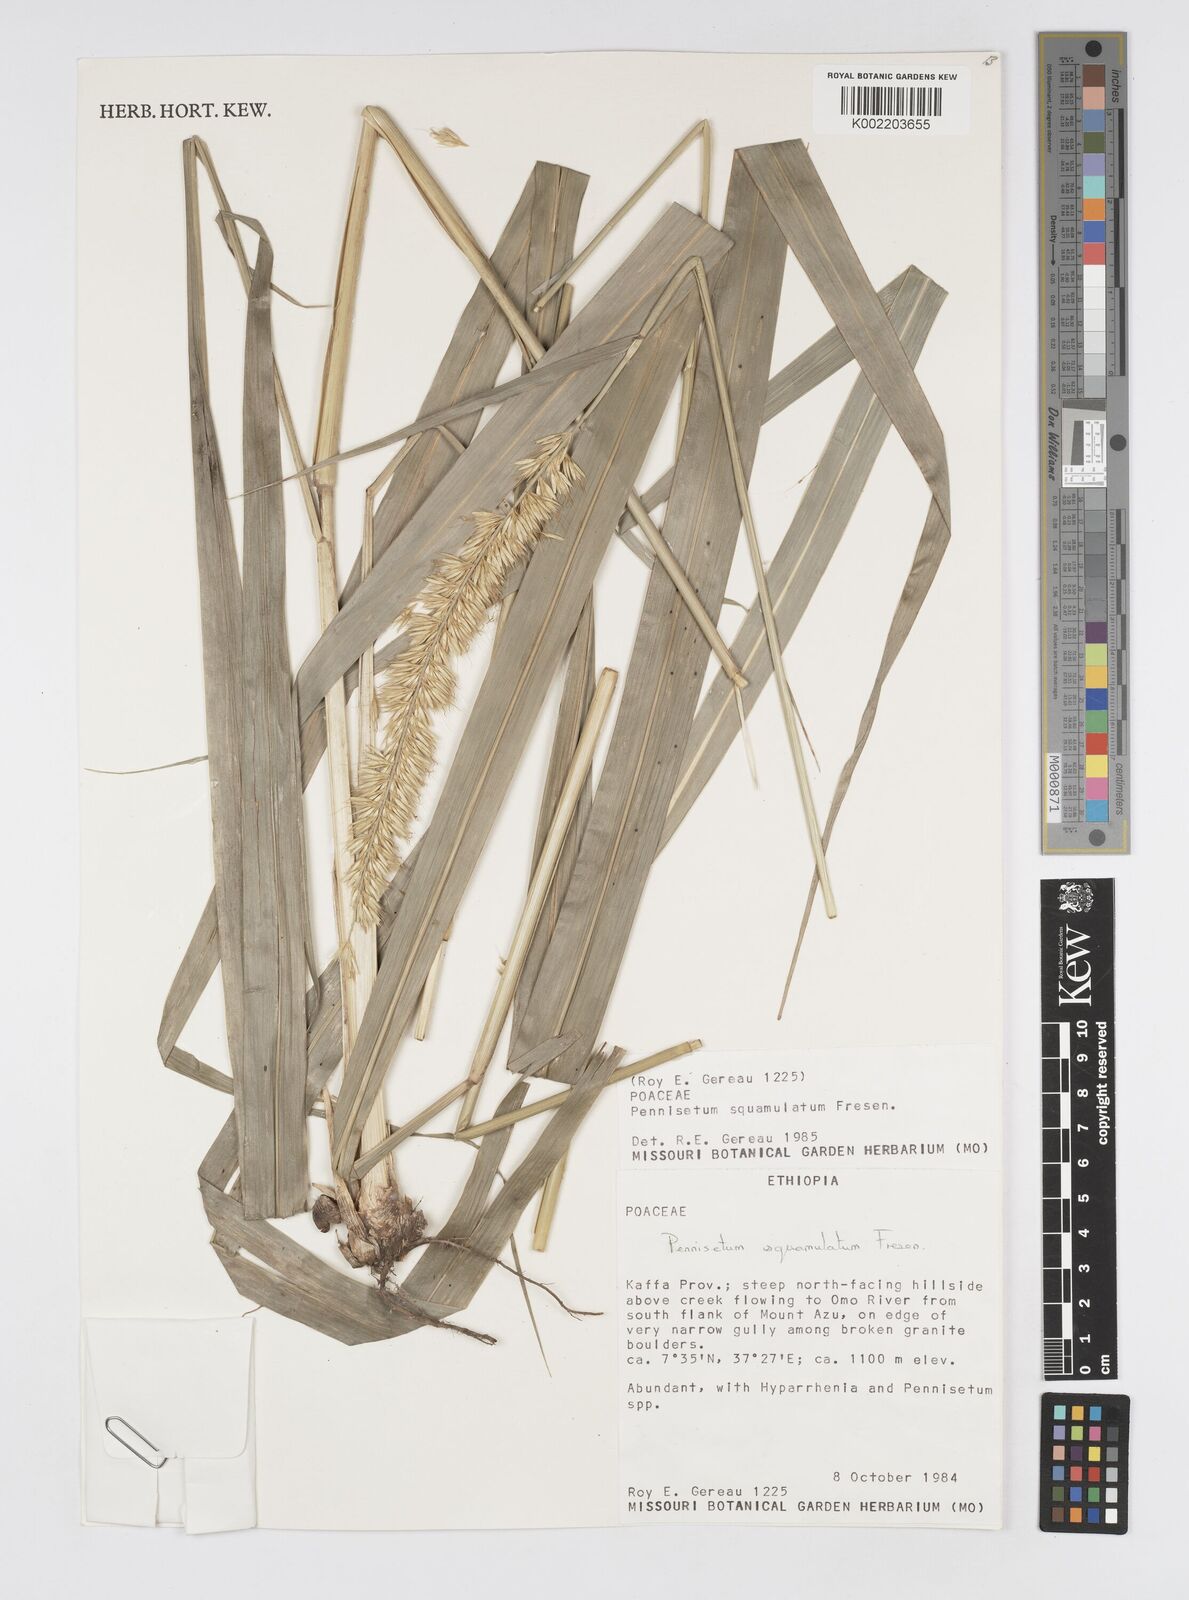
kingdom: Plantae
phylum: Tracheophyta
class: Liliopsida
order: Poales
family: Poaceae
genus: Cenchrus
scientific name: Cenchrus squamulatus
